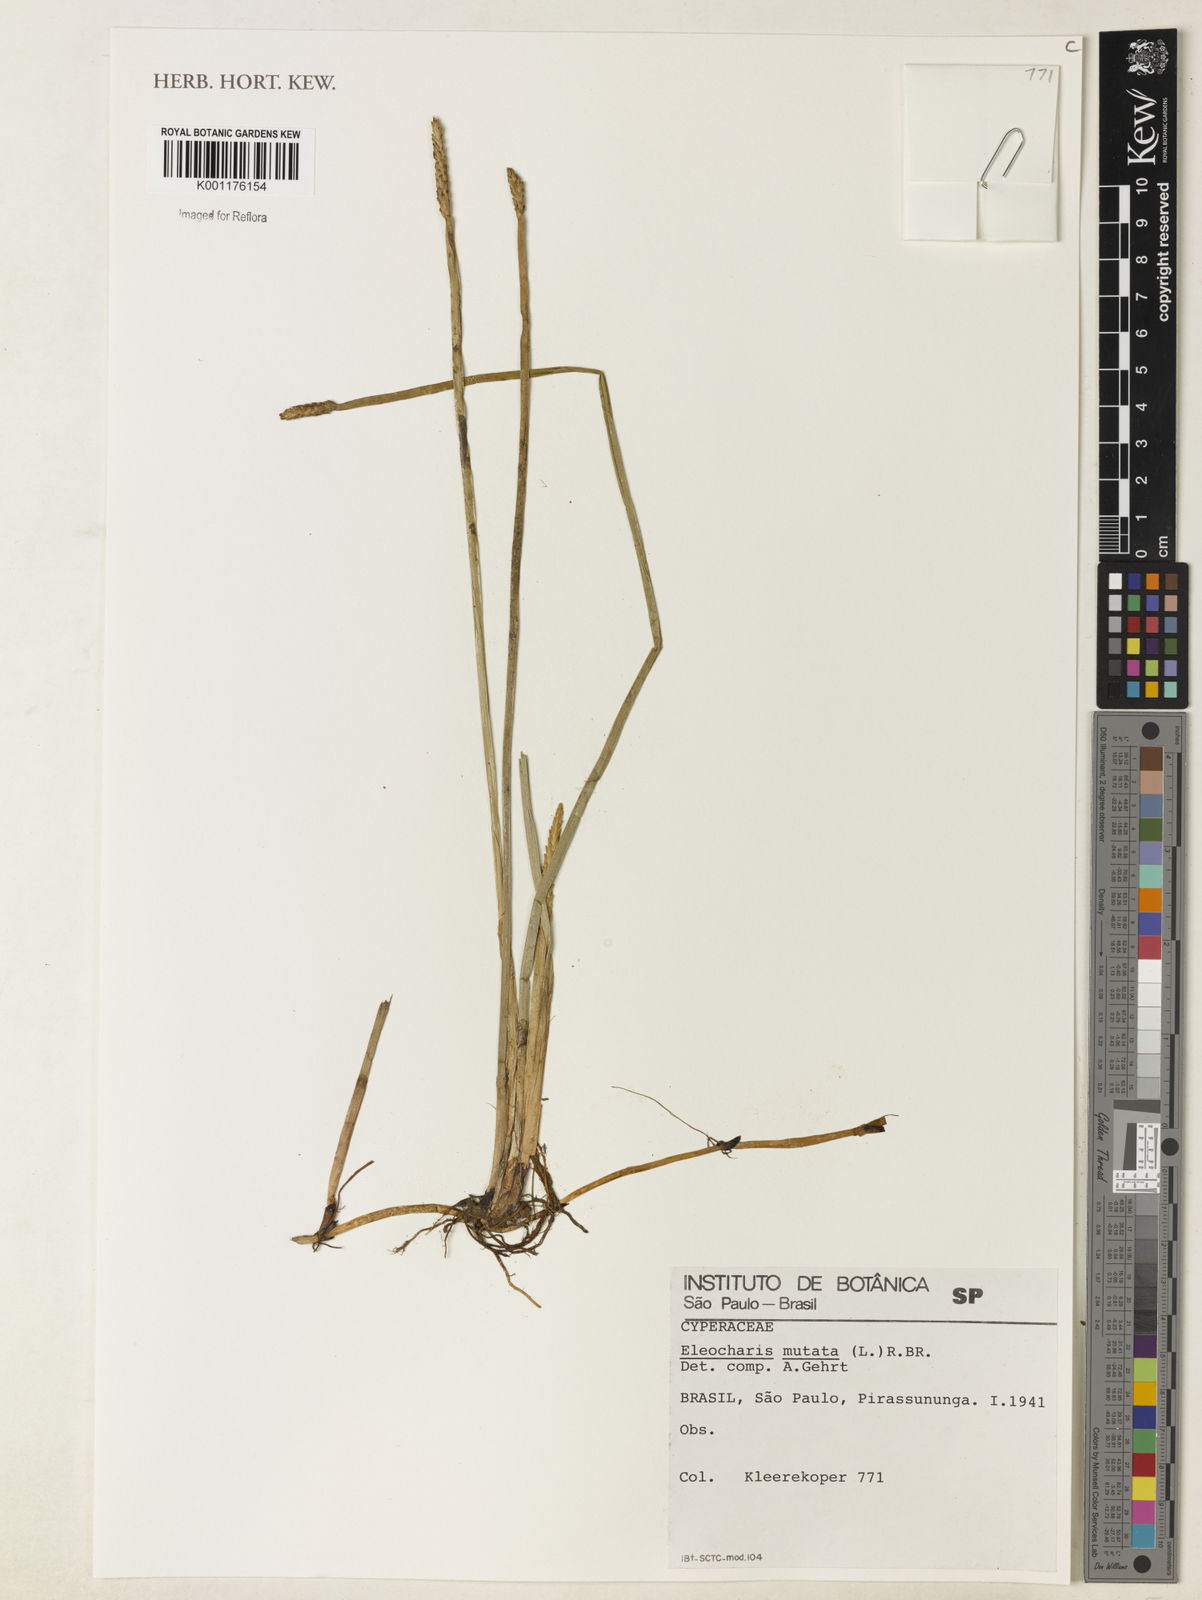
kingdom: Plantae
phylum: Tracheophyta
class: Liliopsida
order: Poales
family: Cyperaceae
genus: Eleocharis
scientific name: Eleocharis mutata
